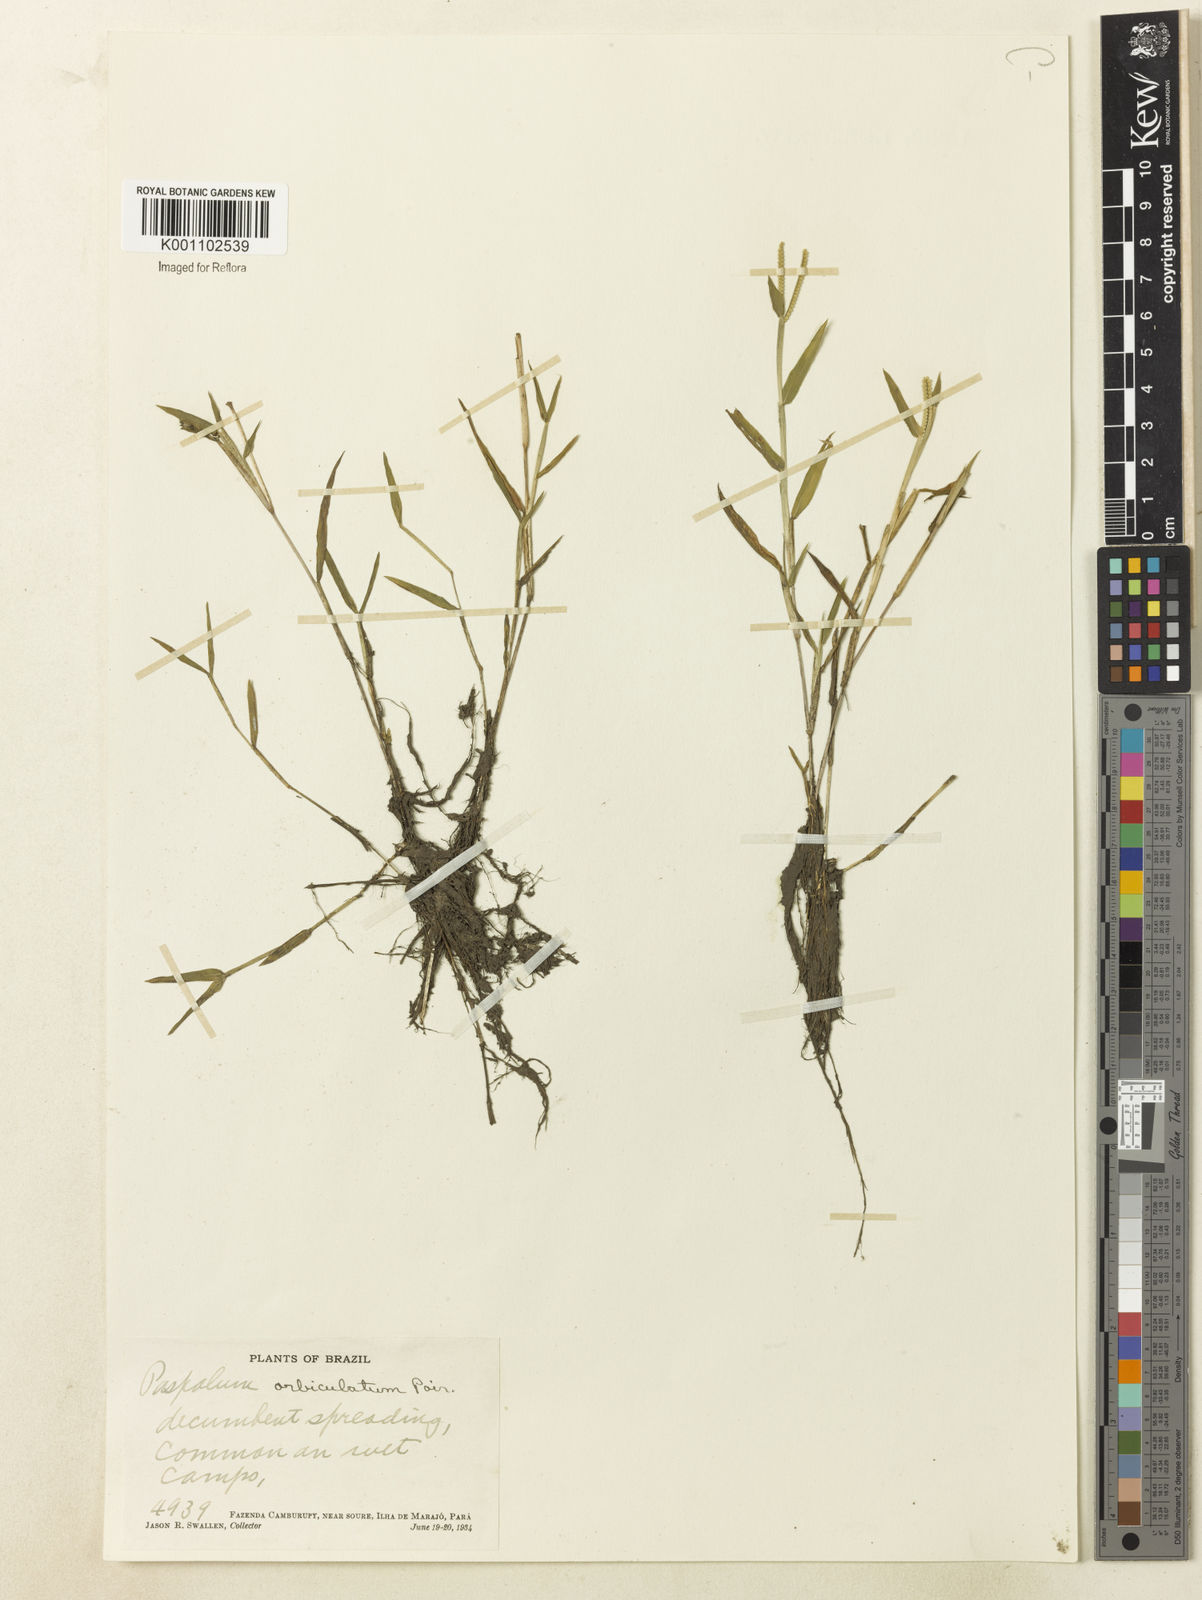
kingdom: Plantae
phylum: Tracheophyta
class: Liliopsida
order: Poales
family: Poaceae
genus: Paspalum
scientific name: Paspalum orbiculatum
